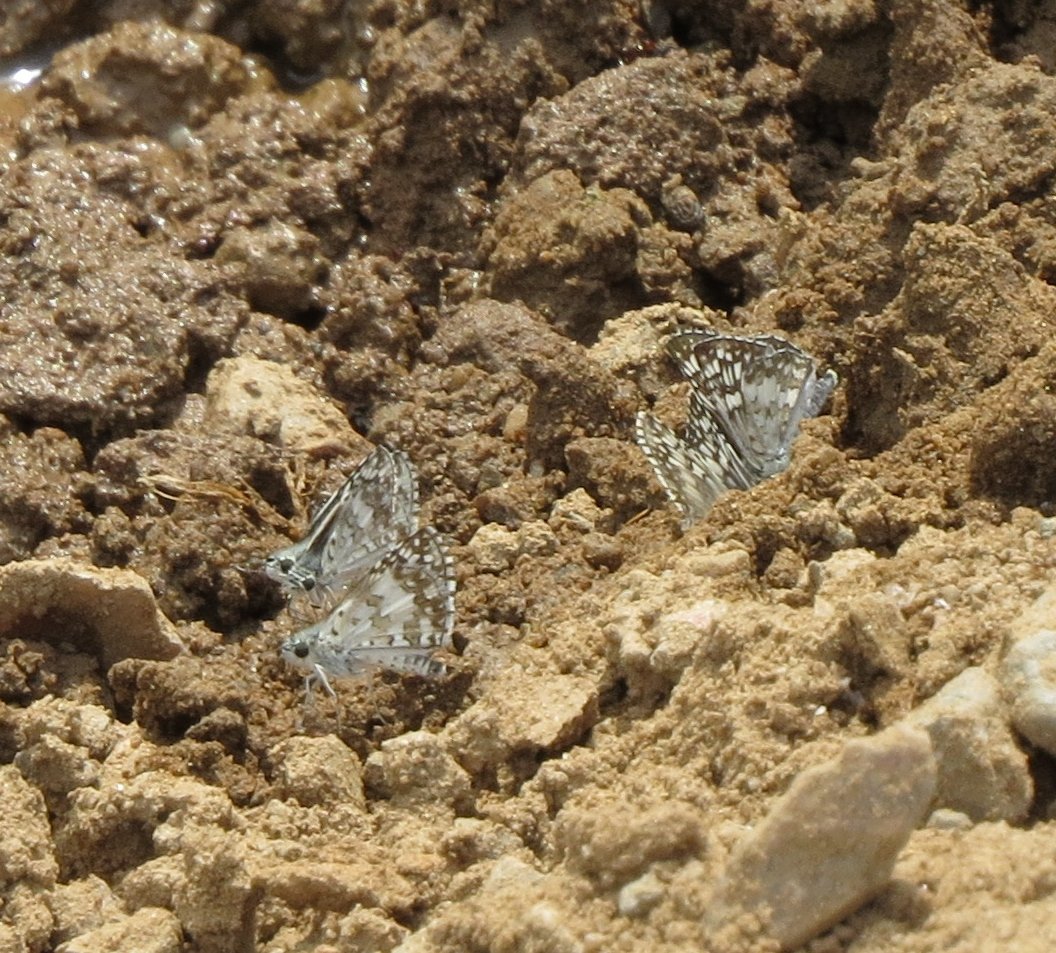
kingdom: Animalia
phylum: Arthropoda
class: Insecta
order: Lepidoptera
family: Hesperiidae
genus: Pyrgus
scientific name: Pyrgus communis
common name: White Checkered-Skipper
